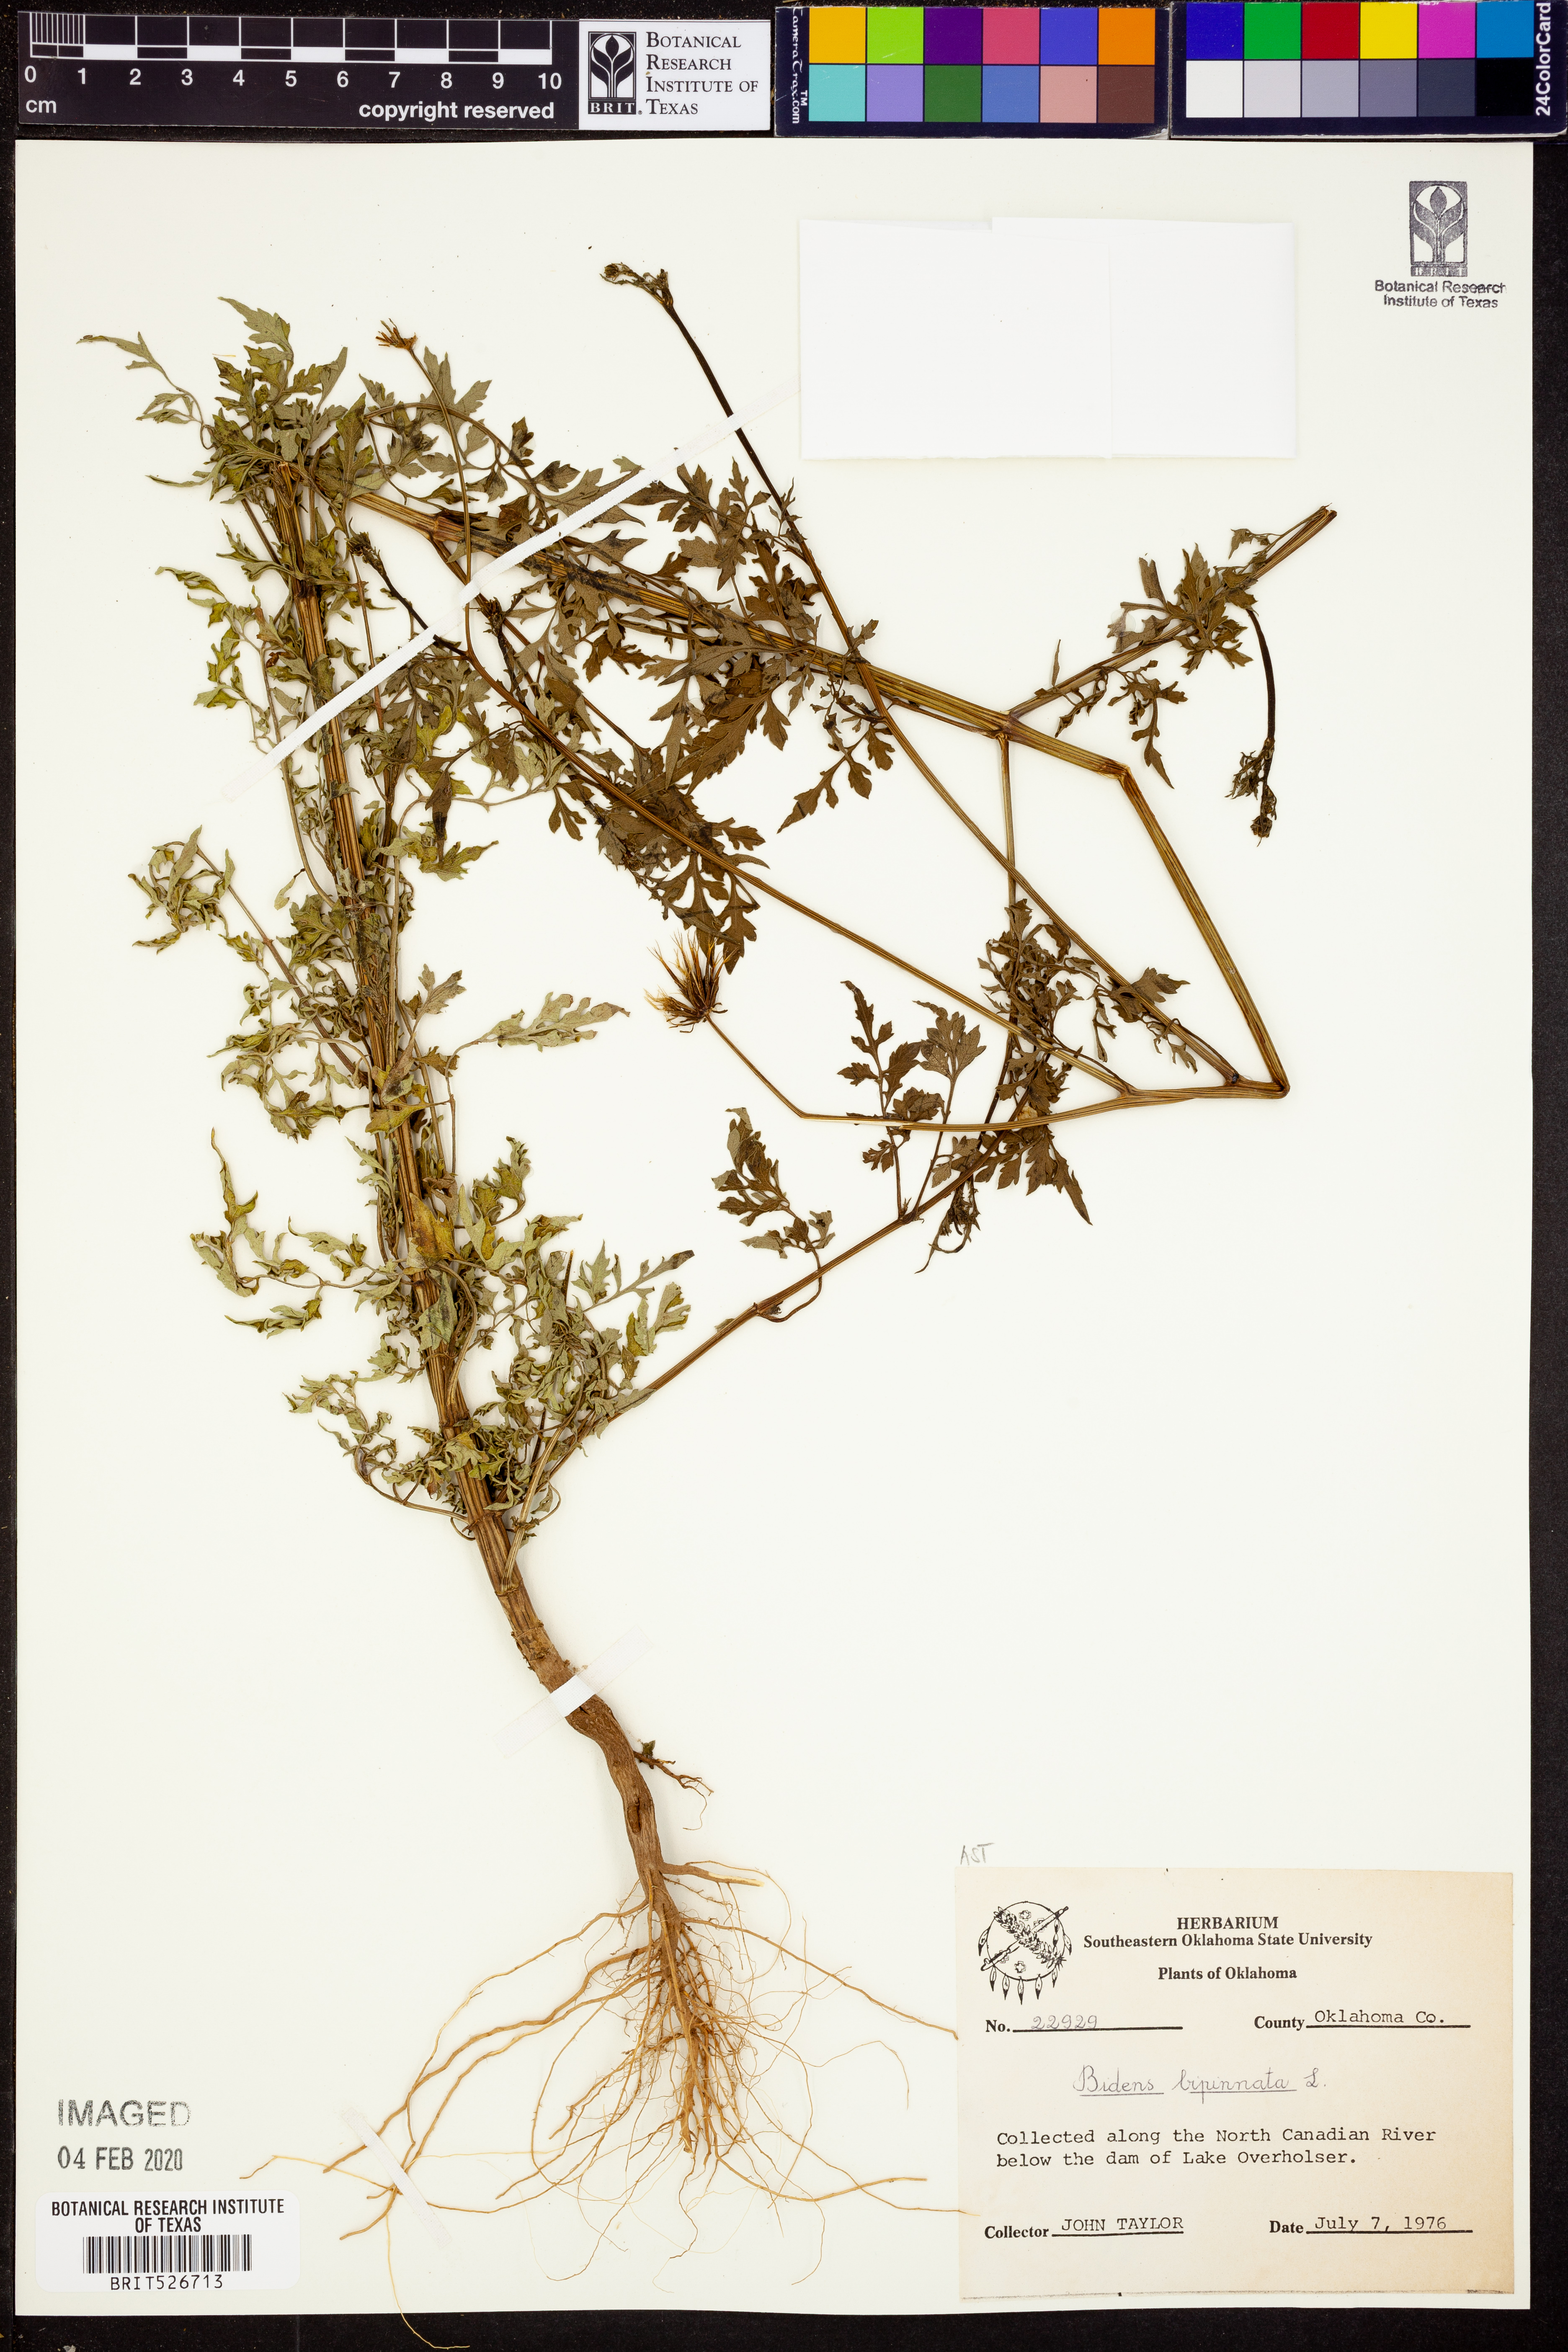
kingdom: Plantae
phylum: Tracheophyta
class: Magnoliopsida
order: Asterales
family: Asteraceae
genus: Bidens
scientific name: Bidens bipinnata
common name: Spanish-needles
